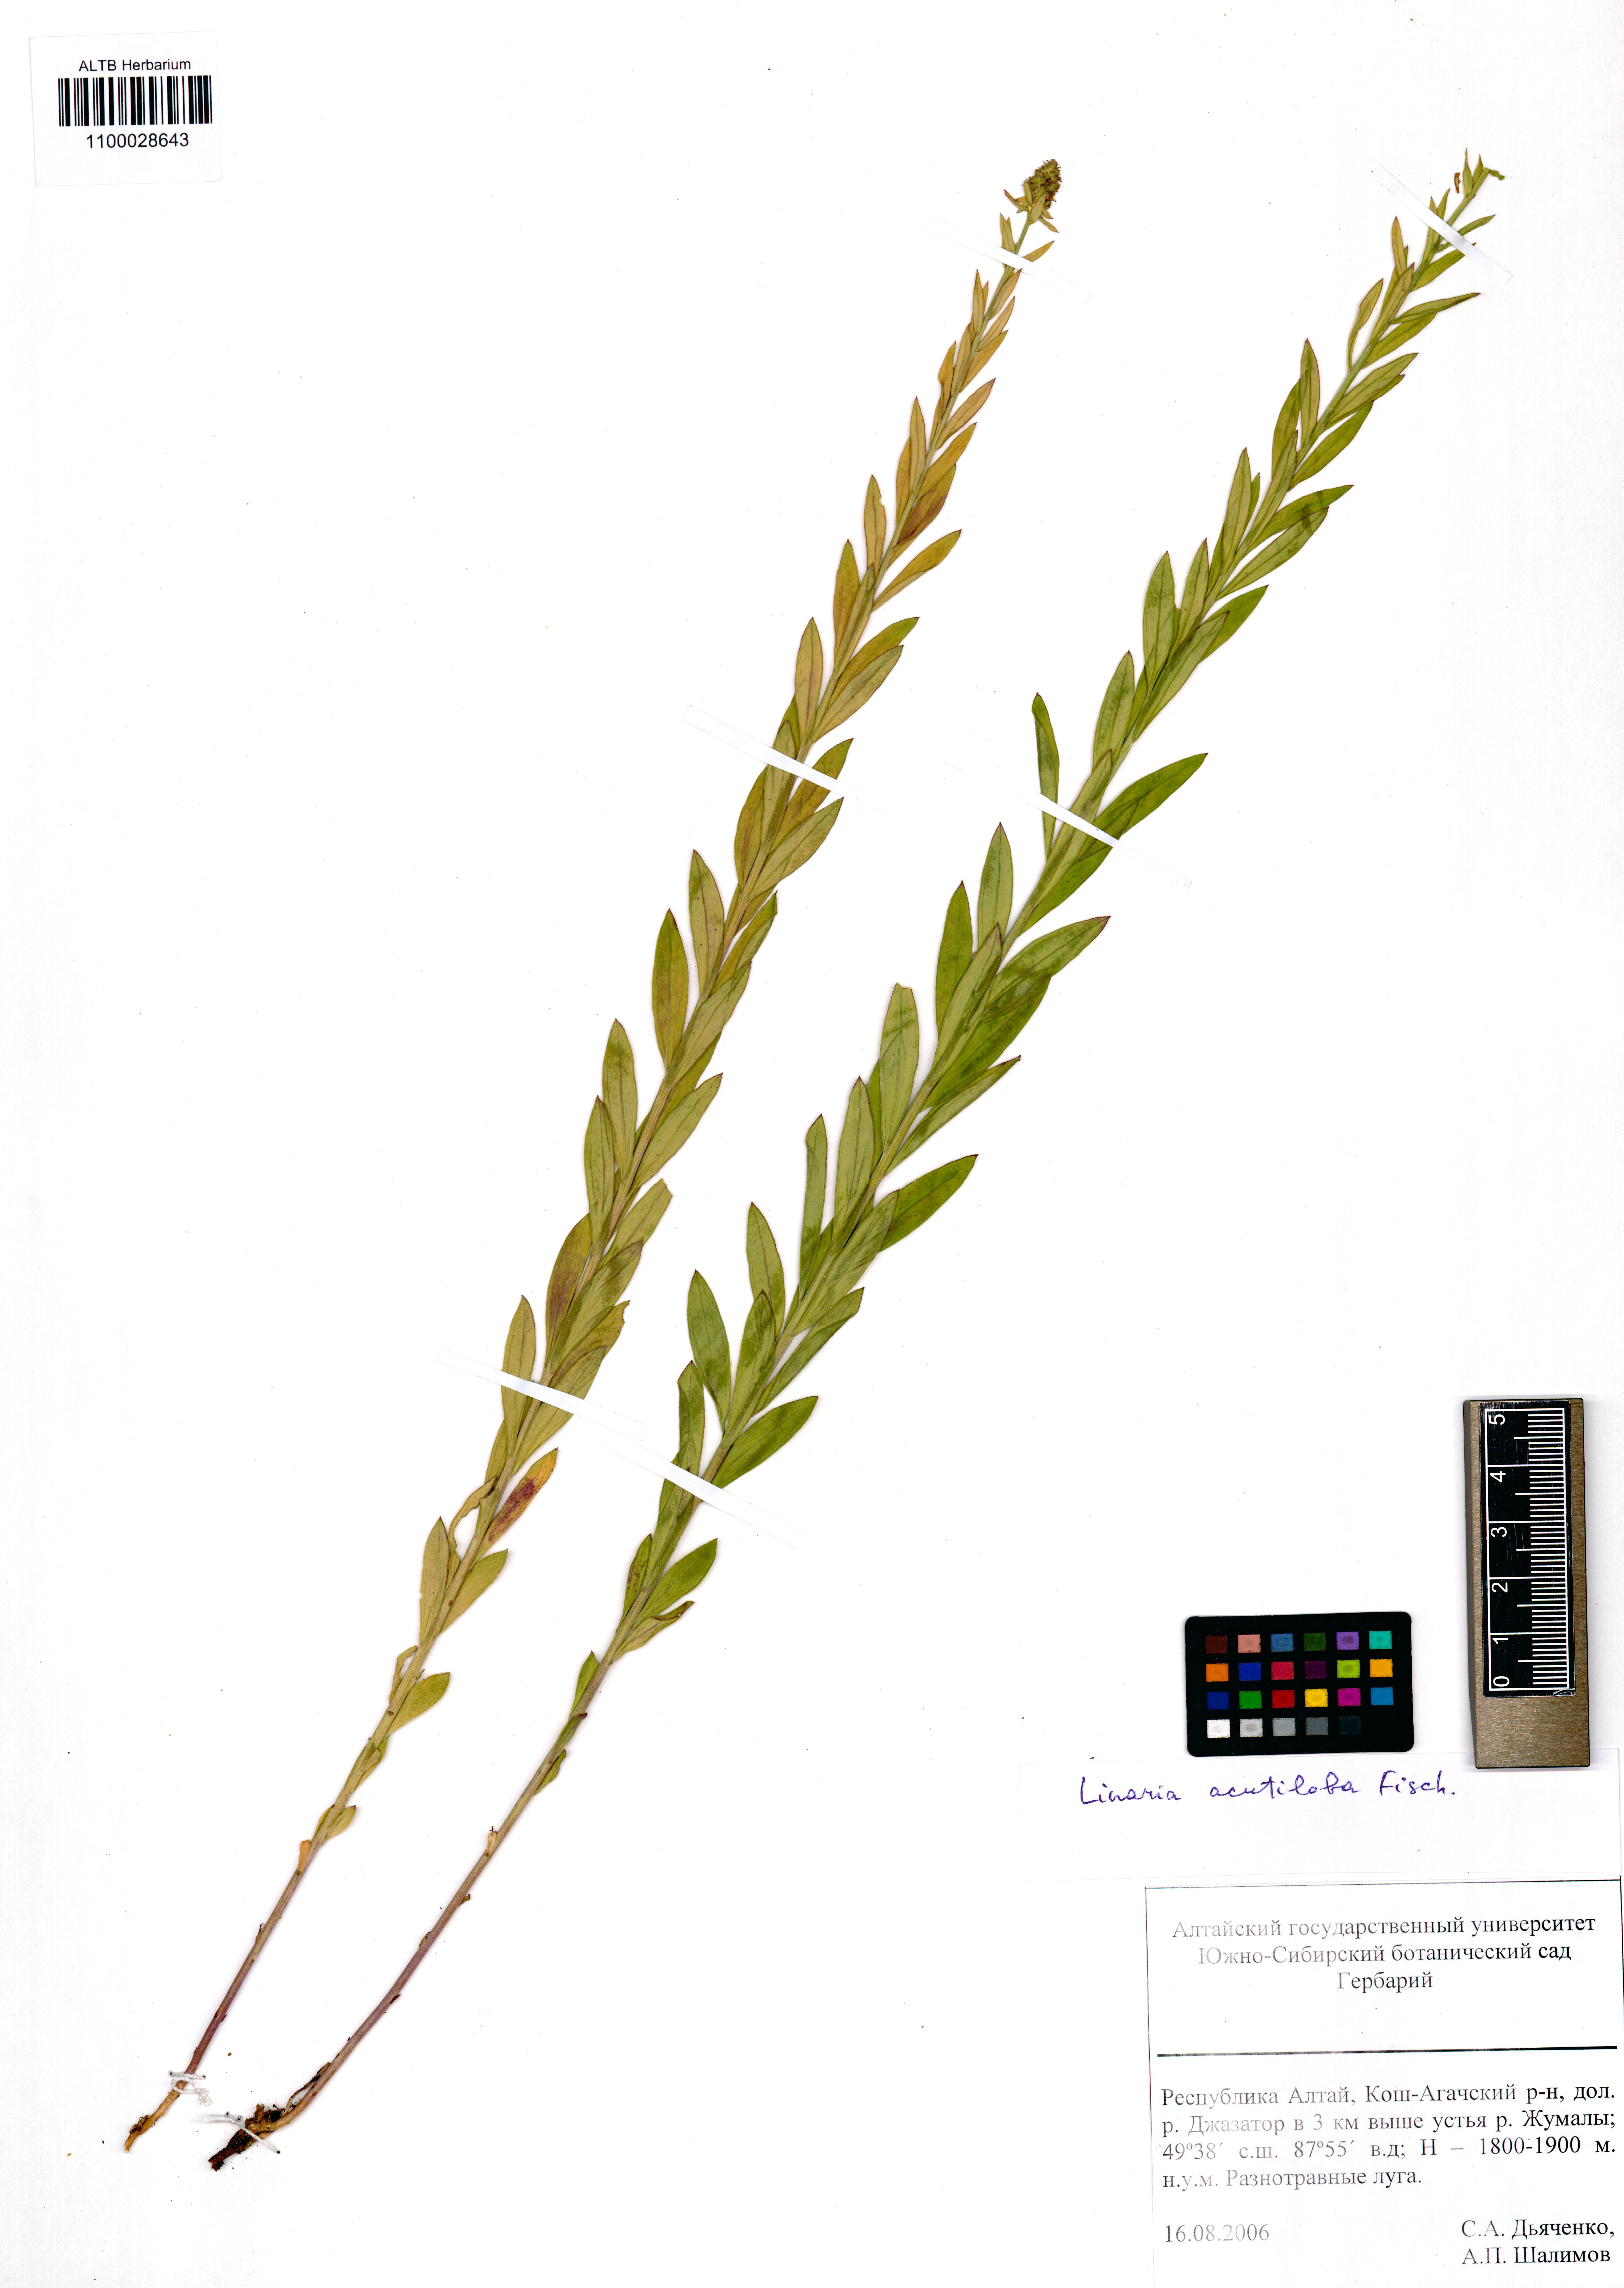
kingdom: Plantae
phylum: Tracheophyta
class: Magnoliopsida
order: Lamiales
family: Plantaginaceae
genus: Linaria
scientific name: Linaria acutiloba
